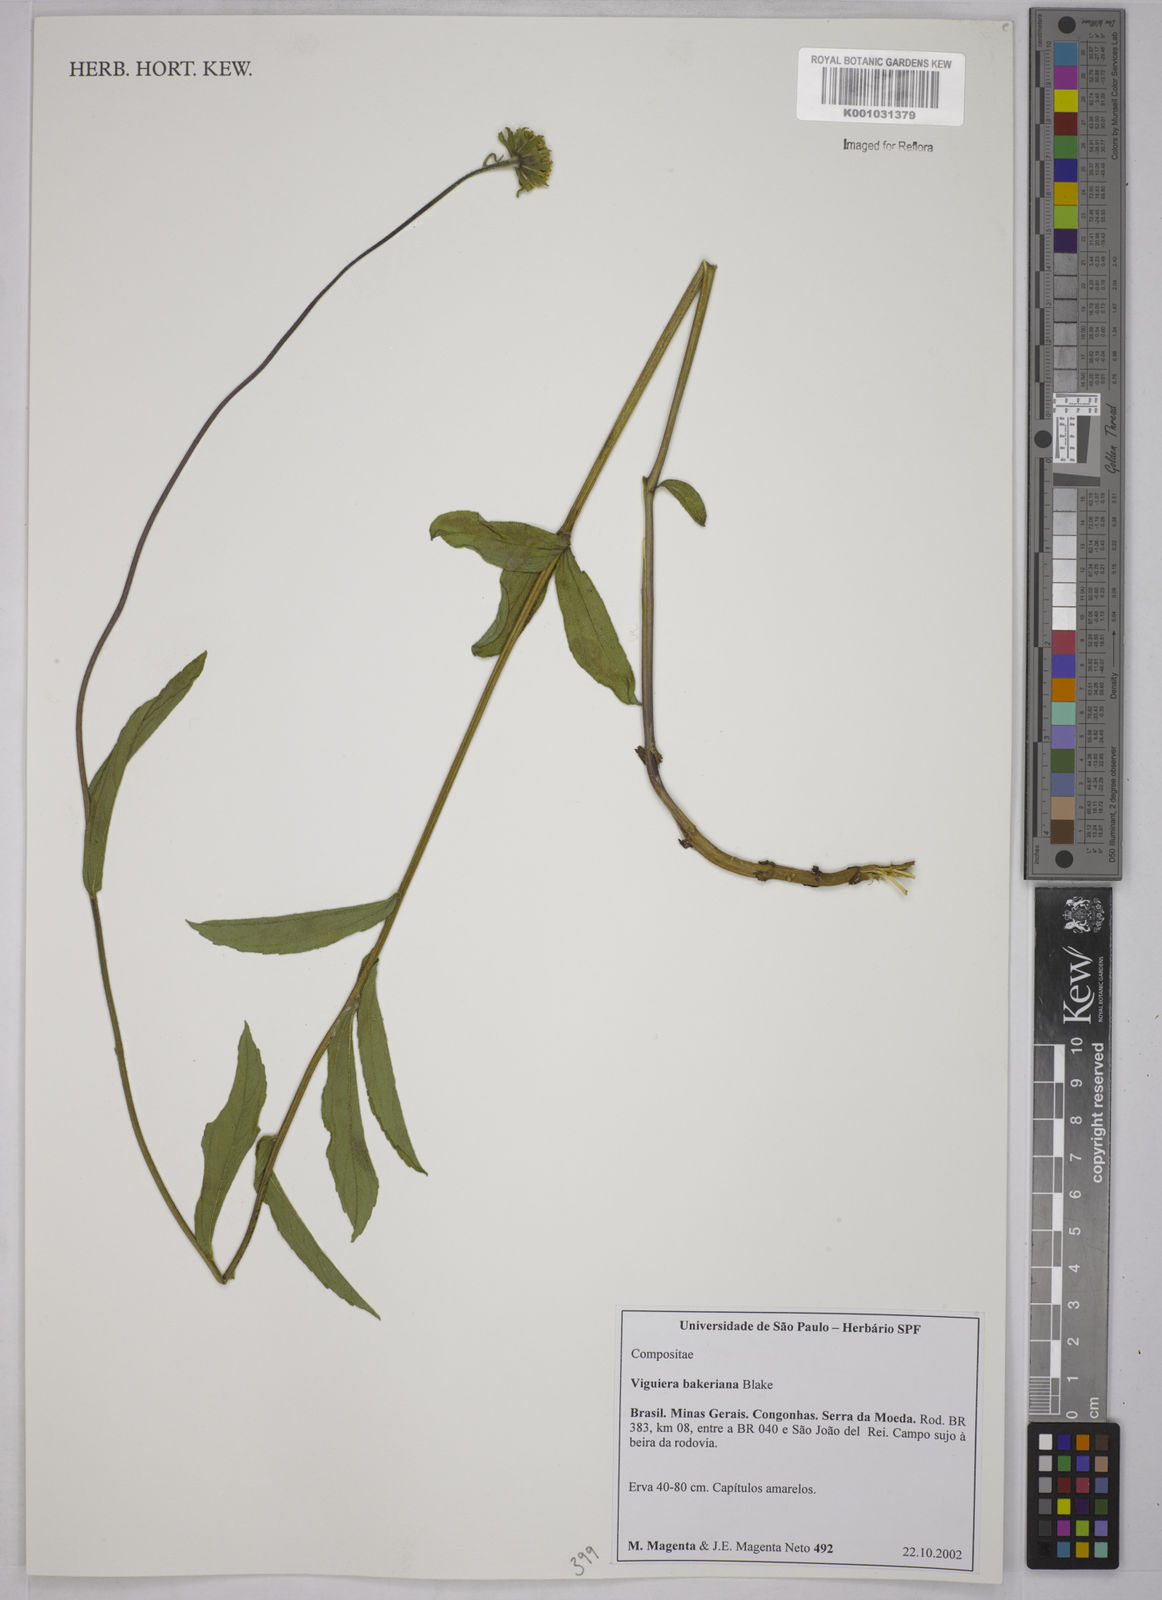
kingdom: Plantae
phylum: Tracheophyta
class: Magnoliopsida
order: Asterales
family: Asteraceae
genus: Aldama
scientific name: Aldama bakeriana
